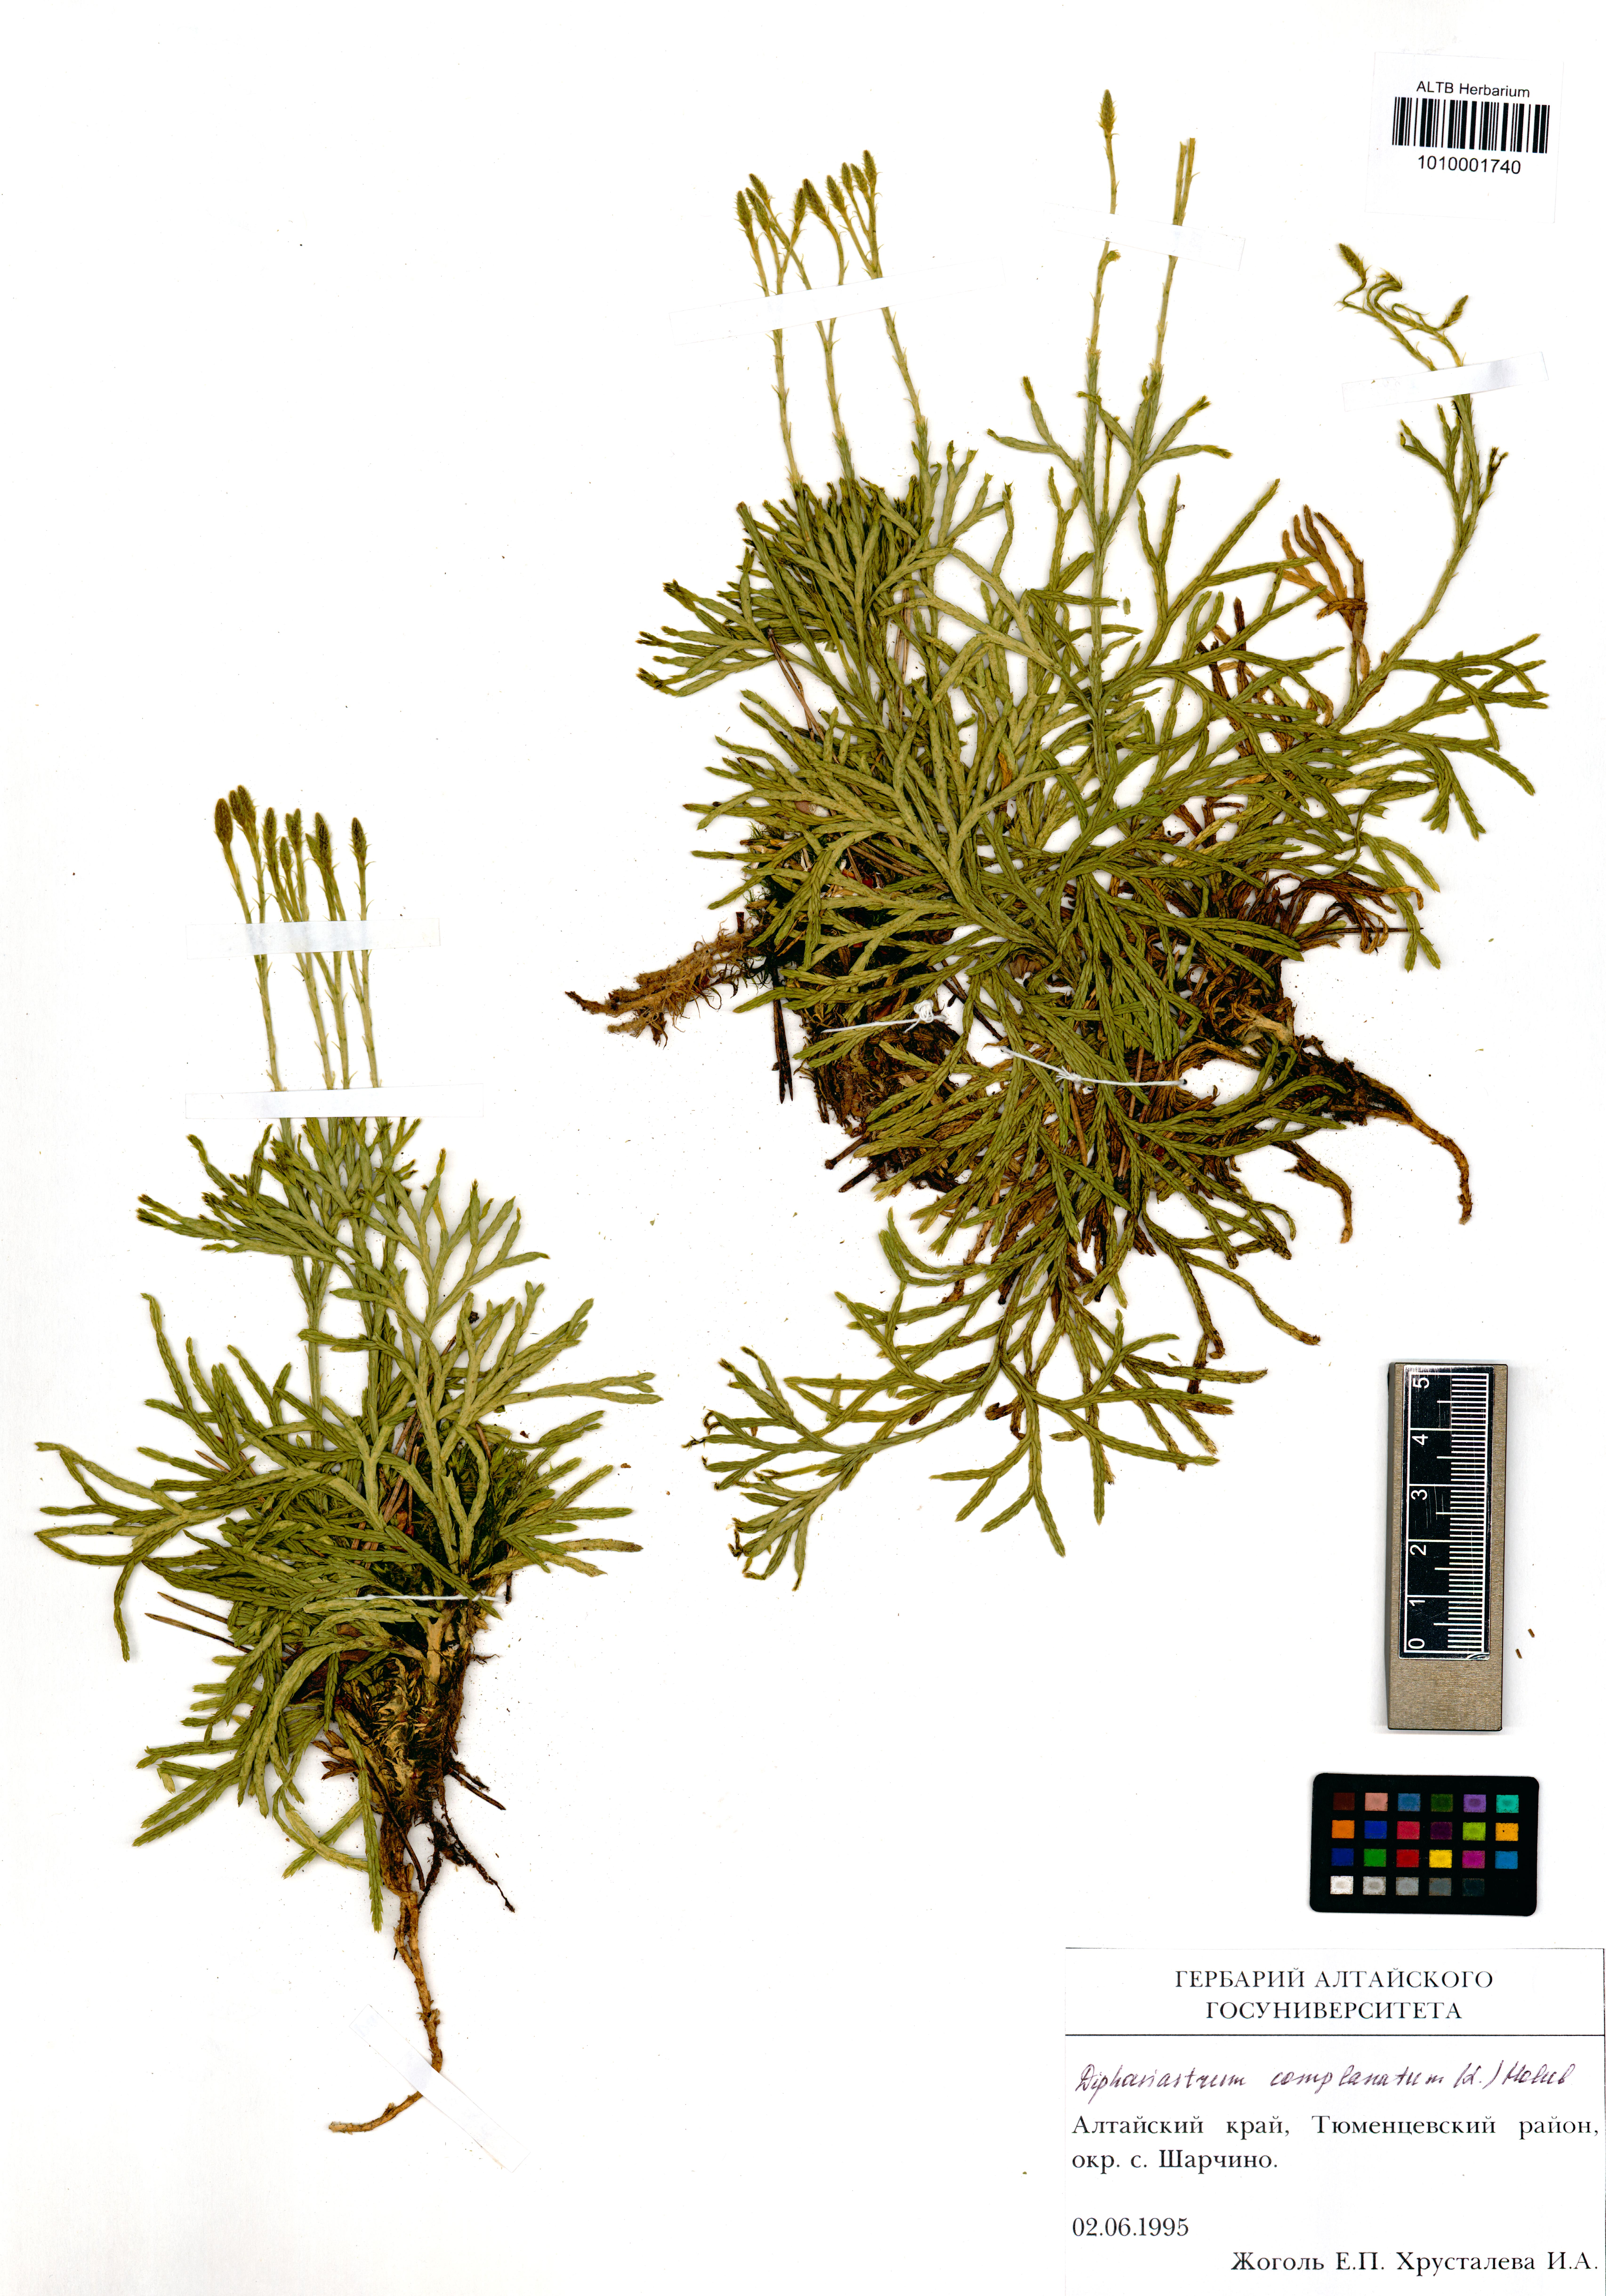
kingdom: Plantae
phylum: Tracheophyta
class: Lycopodiopsida
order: Lycopodiales
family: Lycopodiaceae
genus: Diphasiastrum
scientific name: Diphasiastrum complanatum
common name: Northern running-pine
